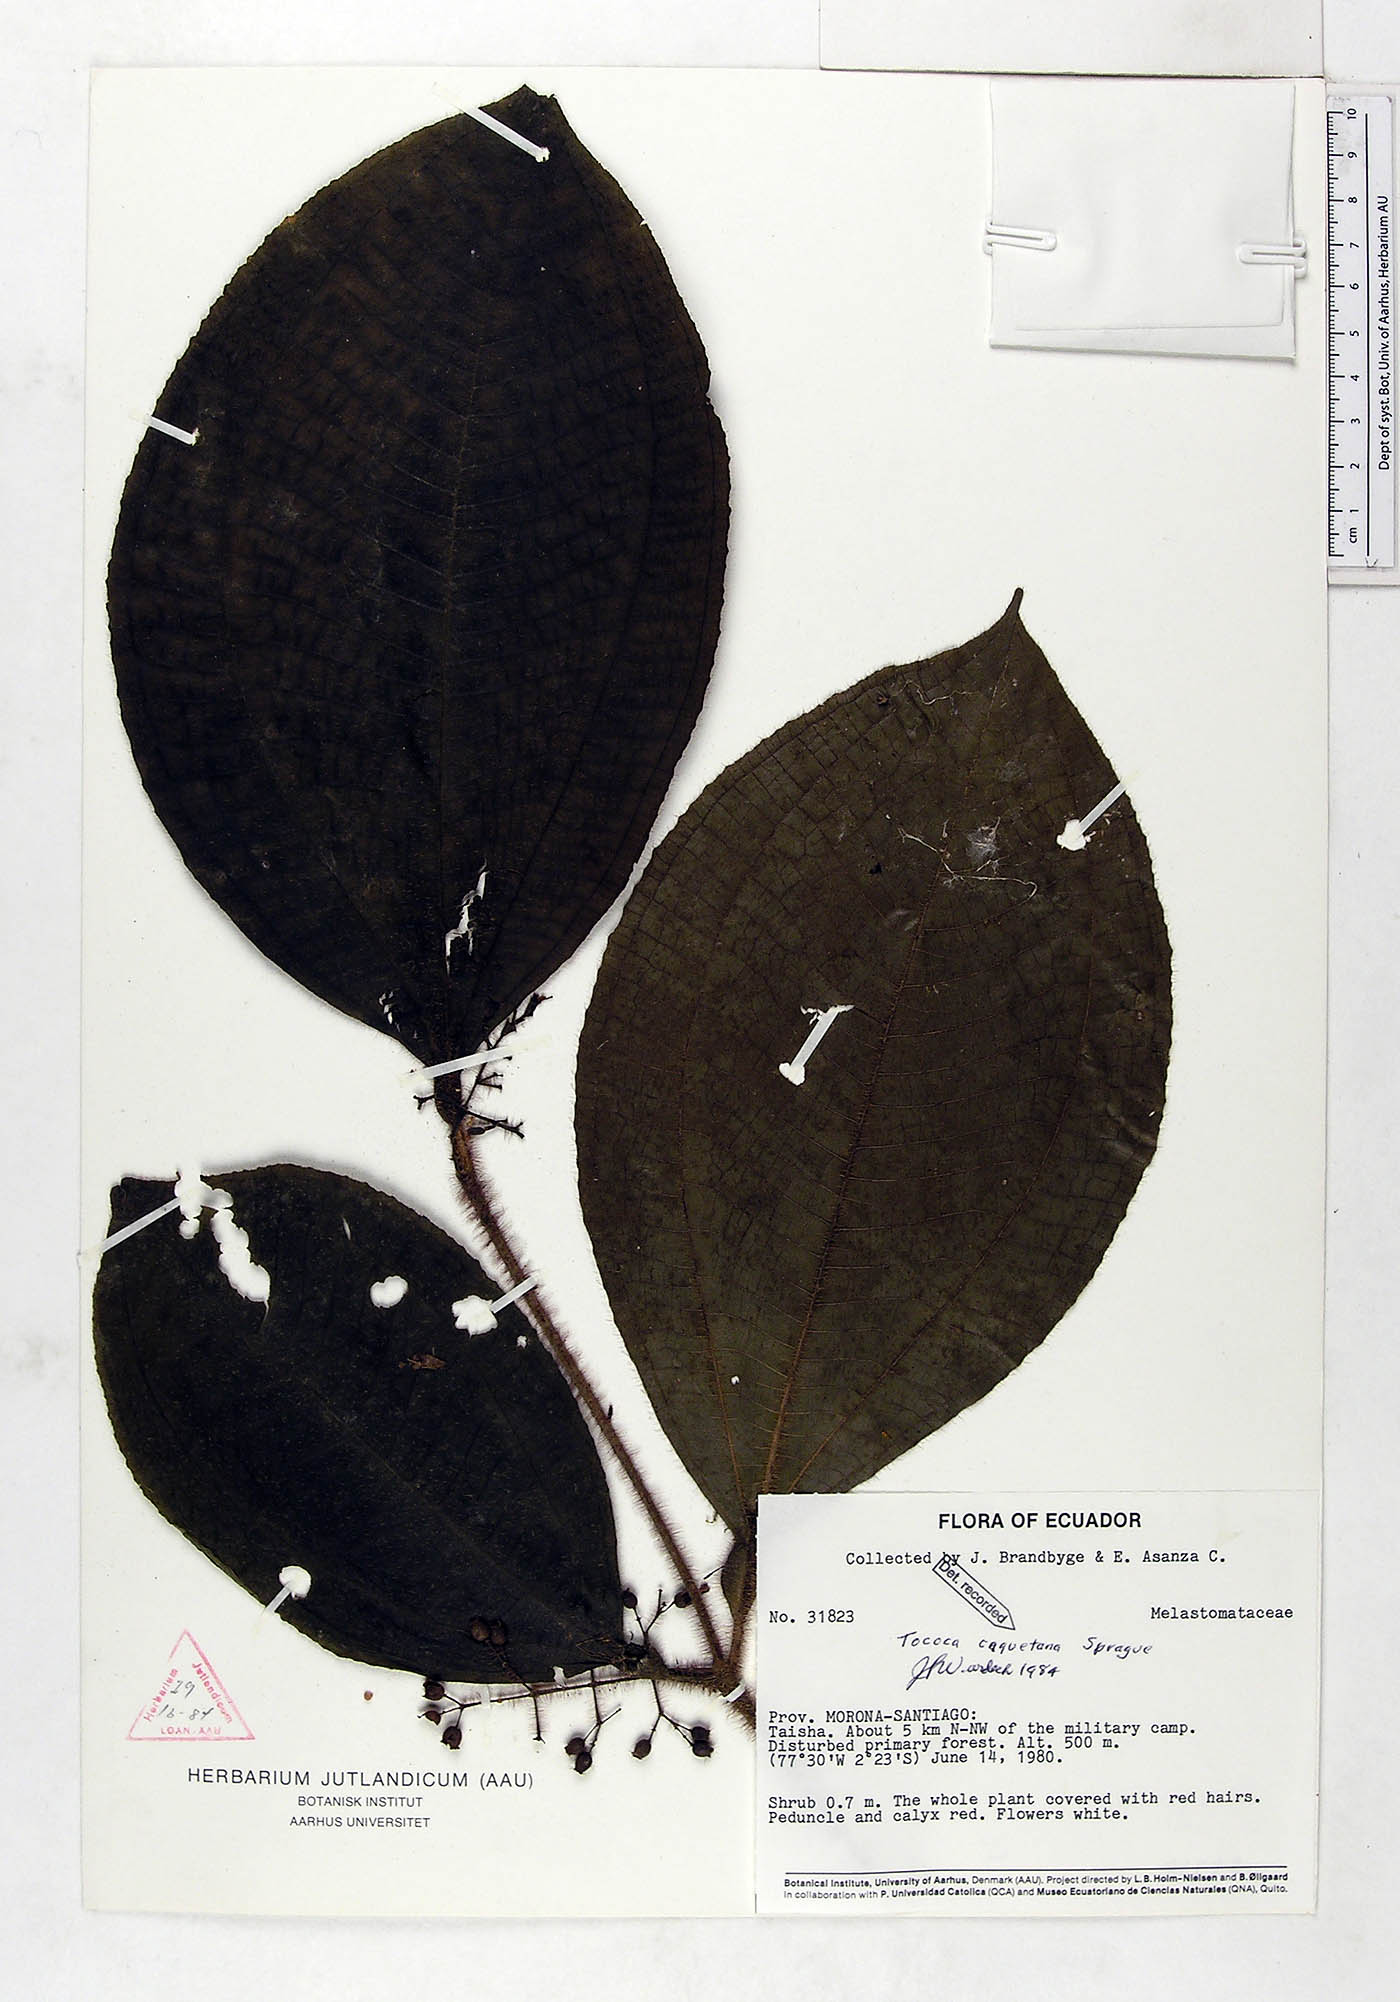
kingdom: Plantae
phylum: Tracheophyta
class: Magnoliopsida
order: Myrtales
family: Melastomataceae
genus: Miconia
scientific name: Miconia caquetana
